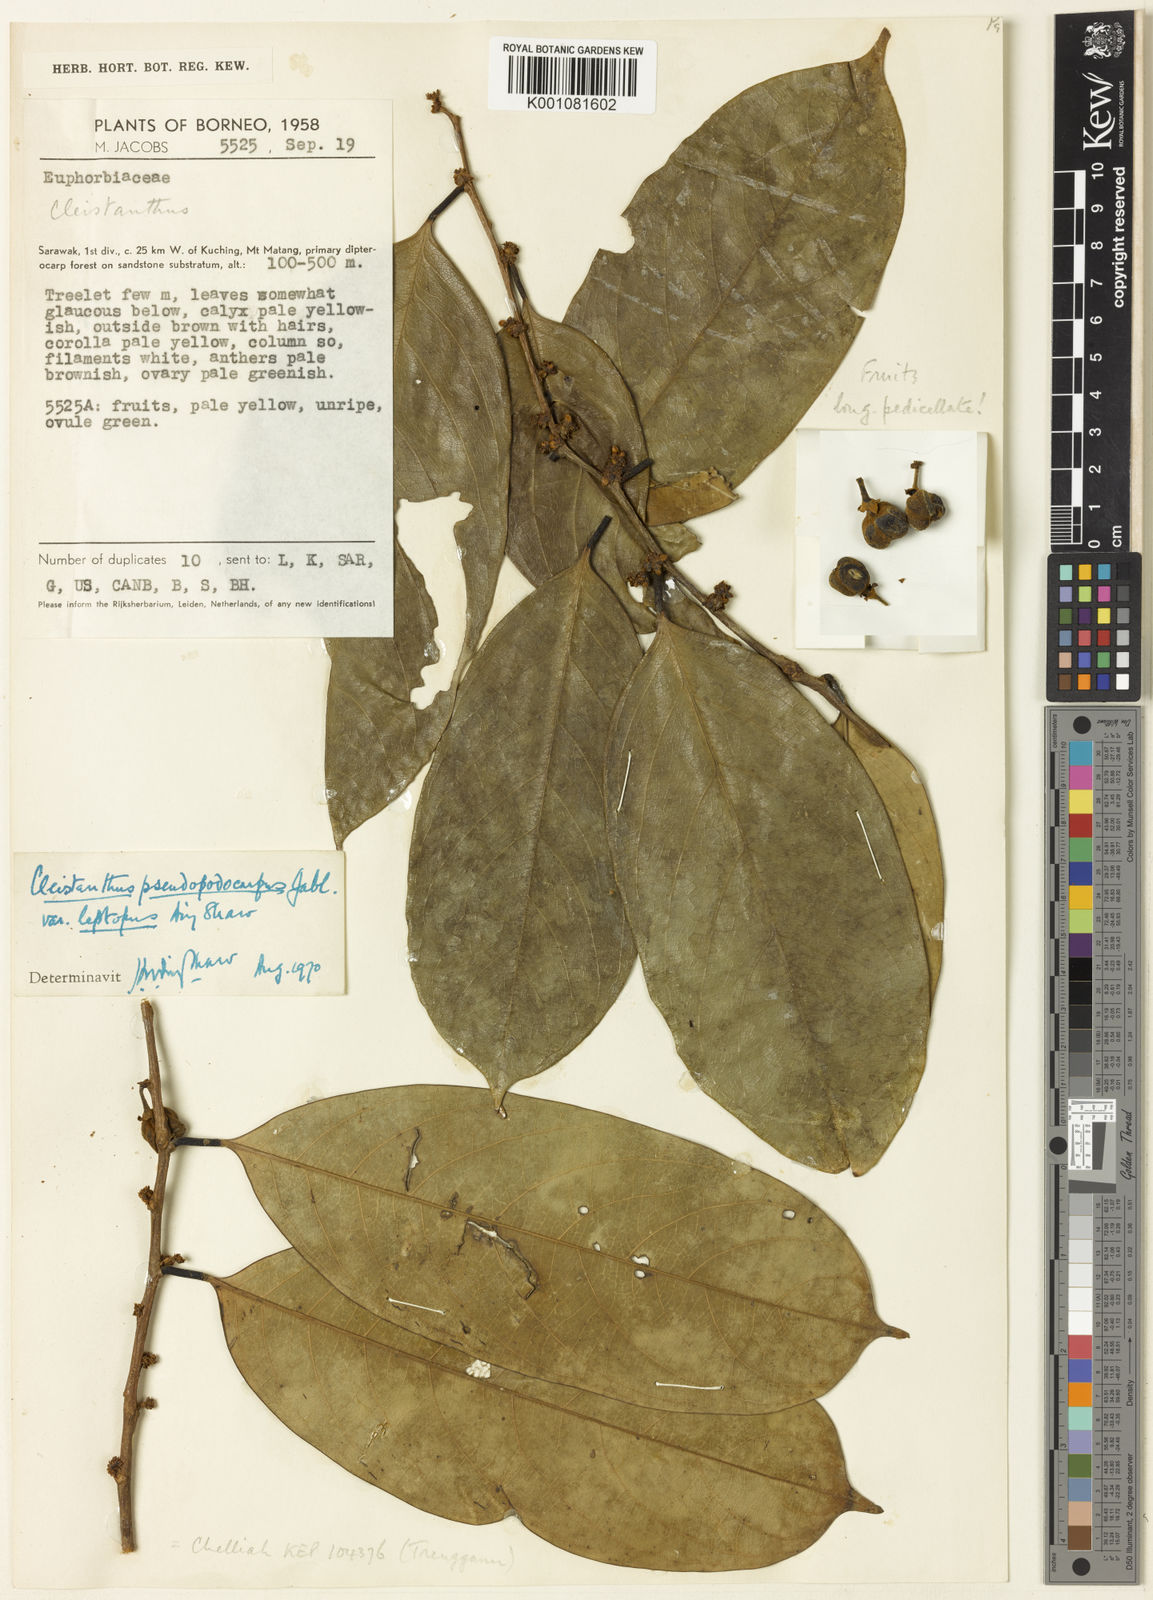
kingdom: Plantae
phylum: Tracheophyta
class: Magnoliopsida
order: Malpighiales
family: Phyllanthaceae
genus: Cleistanthus
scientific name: Cleistanthus rufescens
